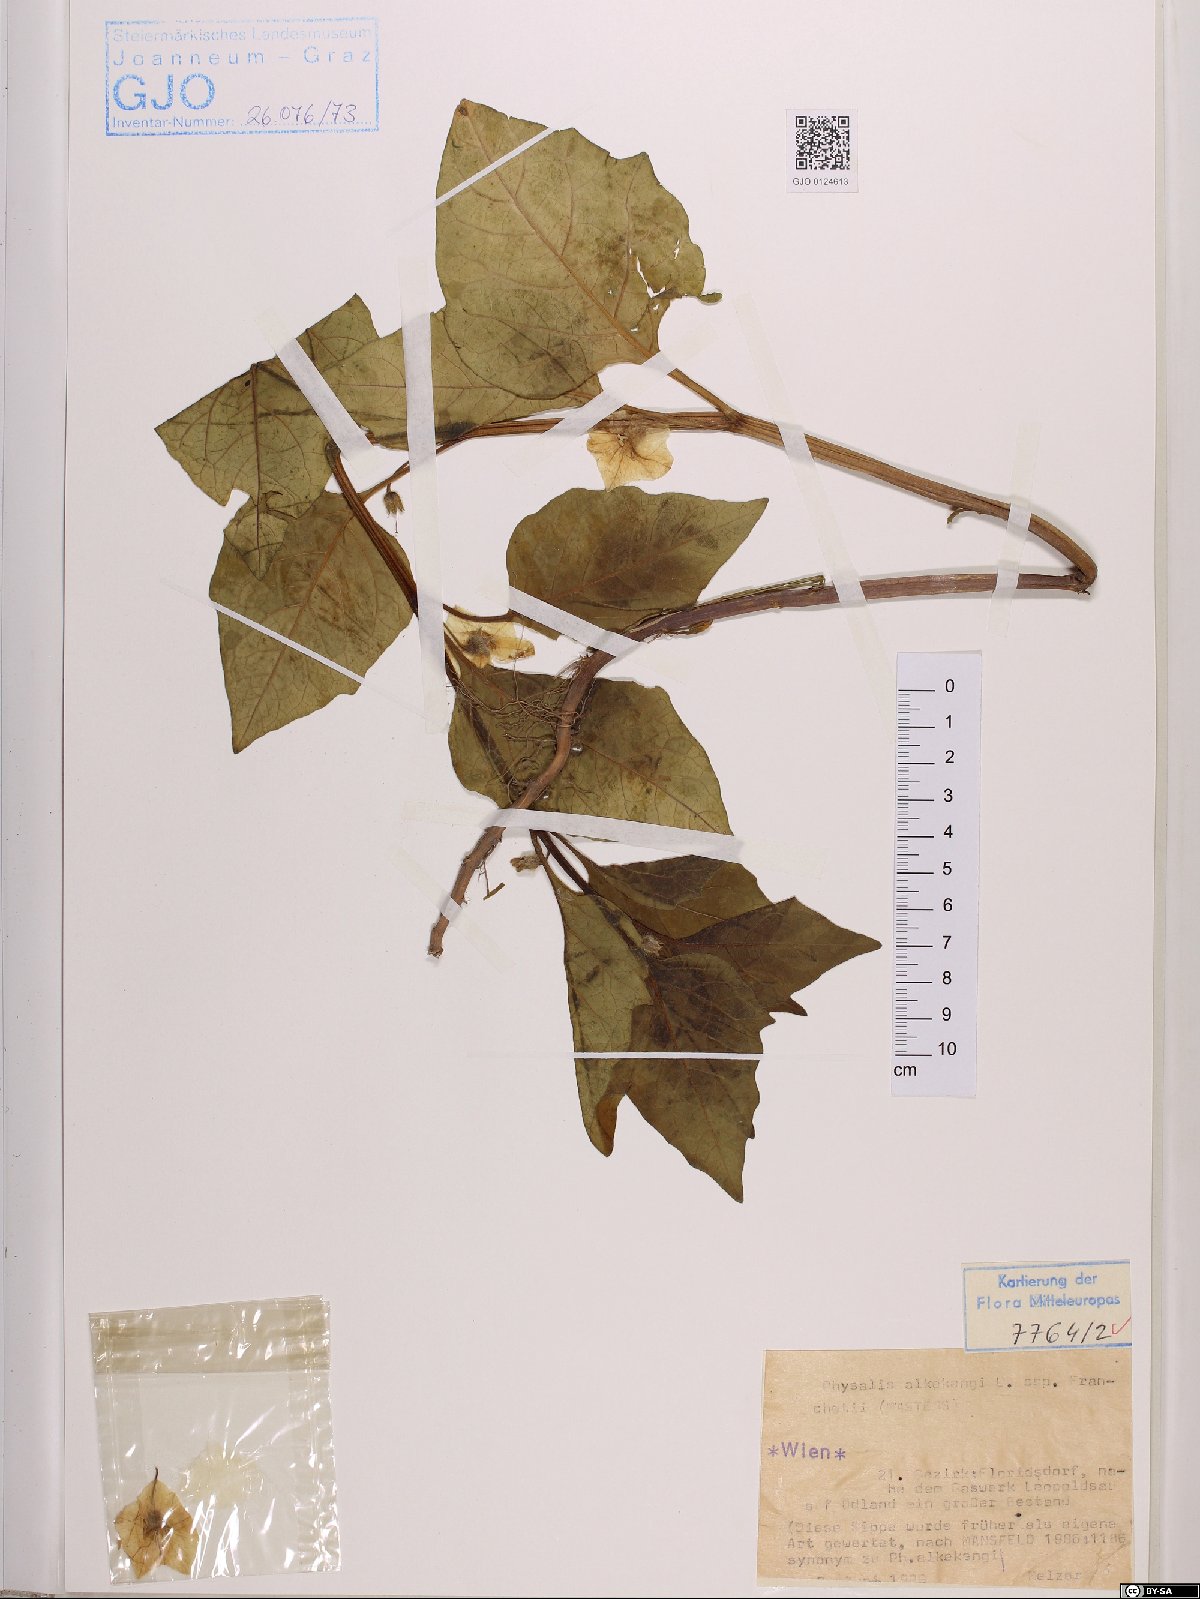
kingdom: Plantae
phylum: Tracheophyta
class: Magnoliopsida
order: Solanales
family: Solanaceae
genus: Alkekengi
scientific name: Alkekengi officinarum
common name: Japanese-lantern
